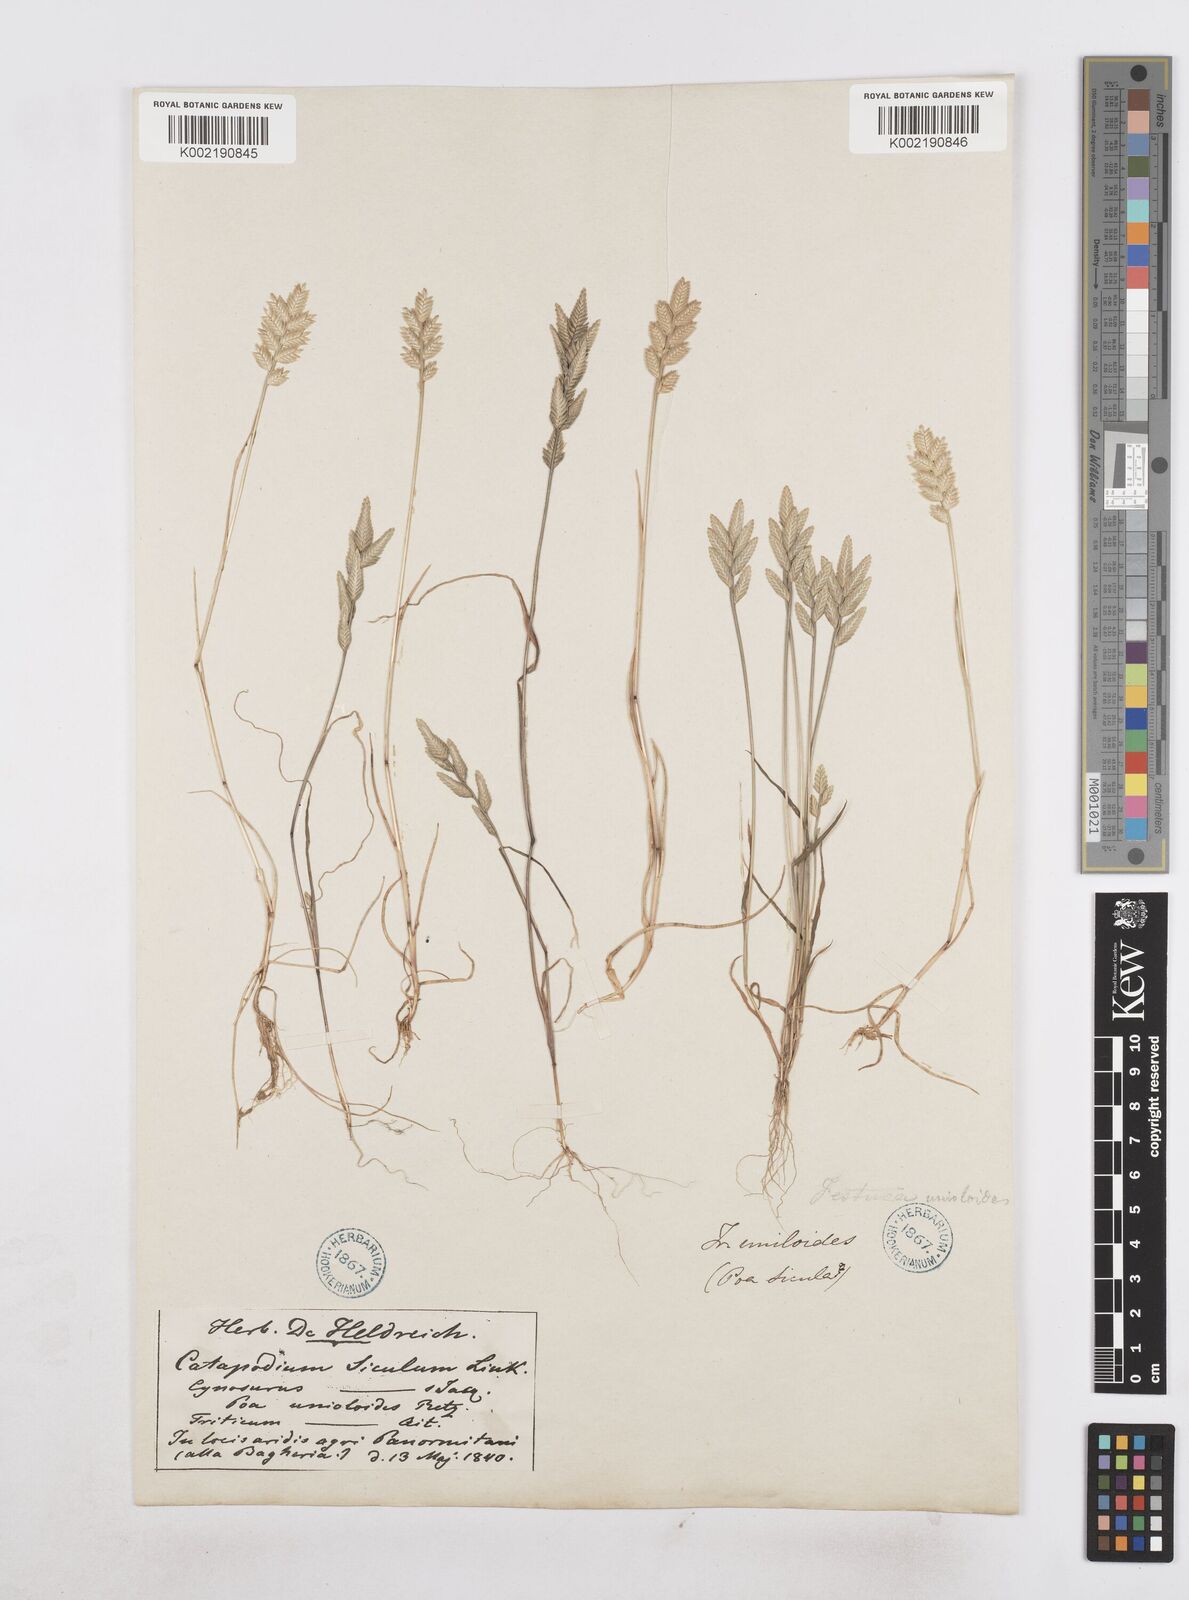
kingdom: Plantae
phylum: Tracheophyta
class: Liliopsida
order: Poales
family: Poaceae
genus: Desmazeria
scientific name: Desmazeria sicula
